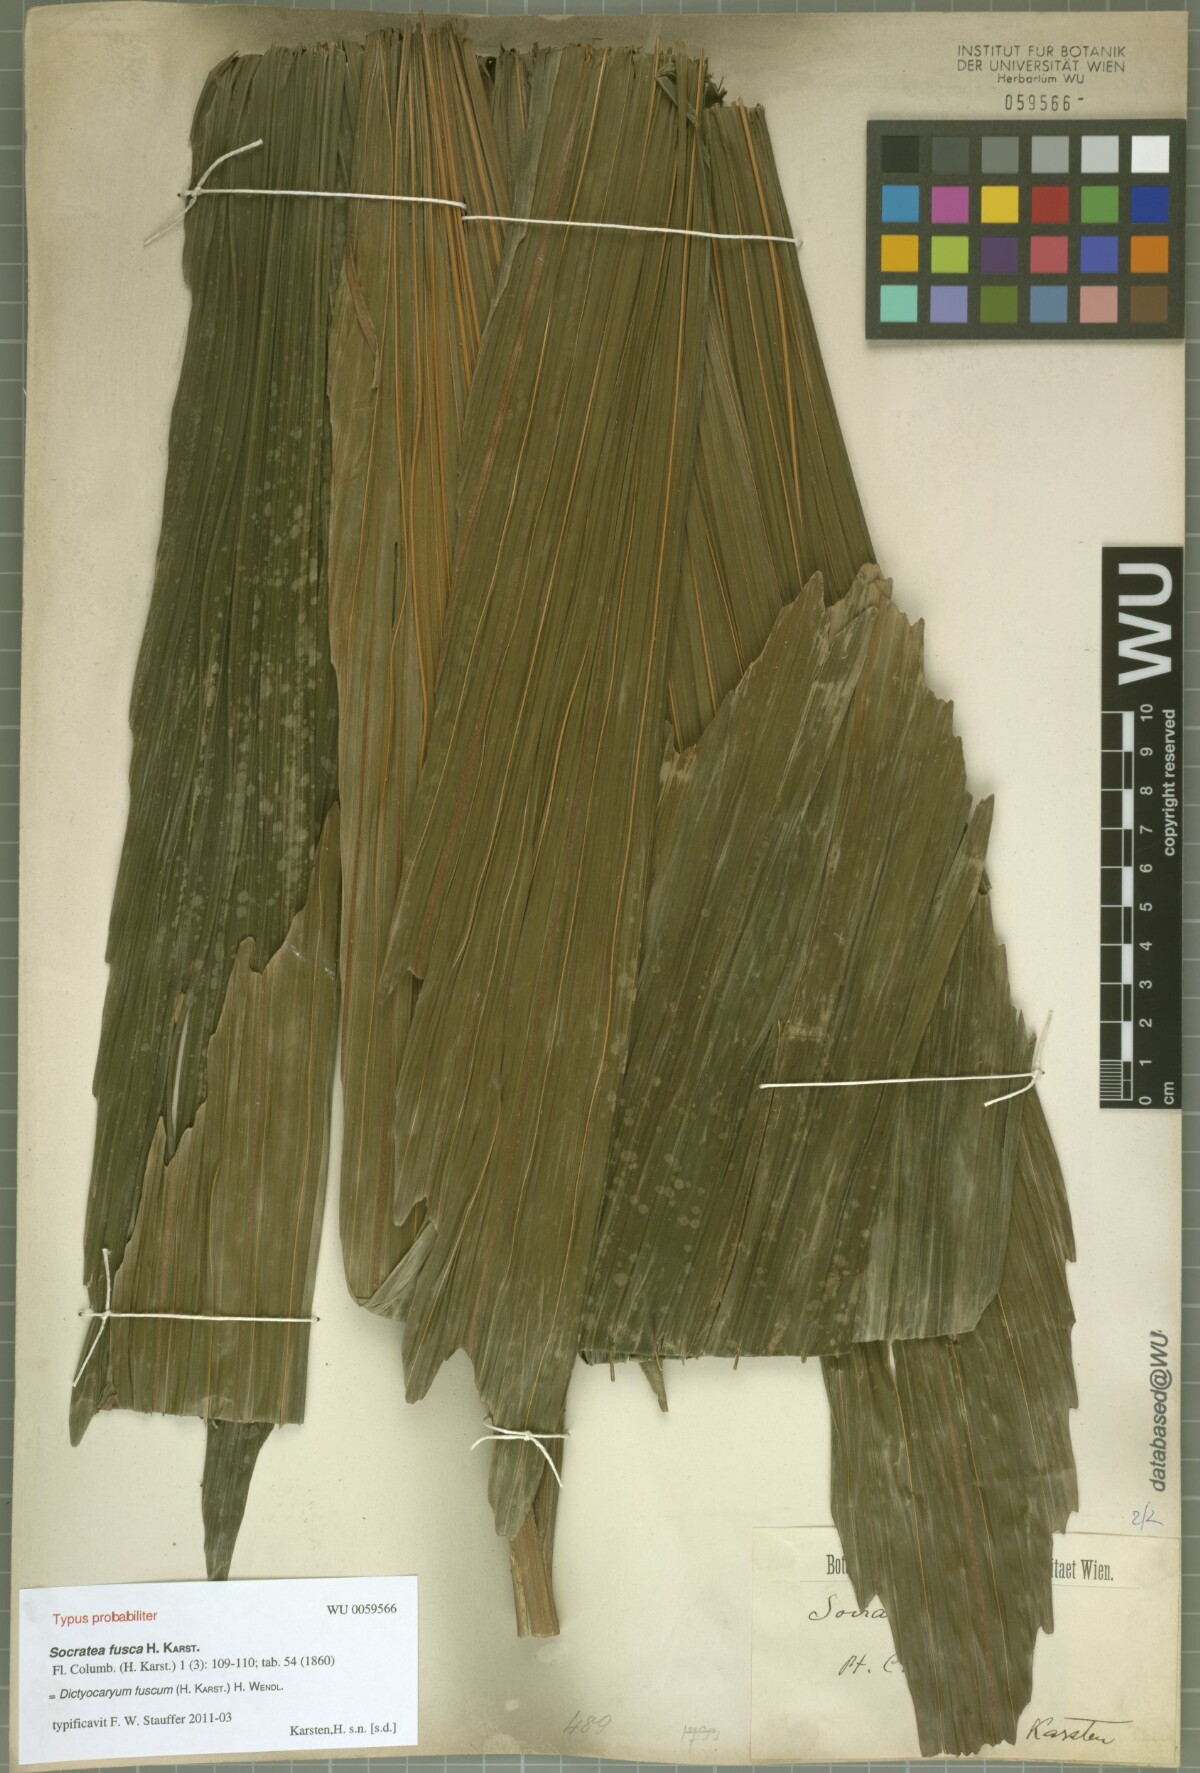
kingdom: Plantae
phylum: Tracheophyta
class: Liliopsida
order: Arecales
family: Arecaceae
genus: Dictyocaryum
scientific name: Dictyocaryum fuscum
